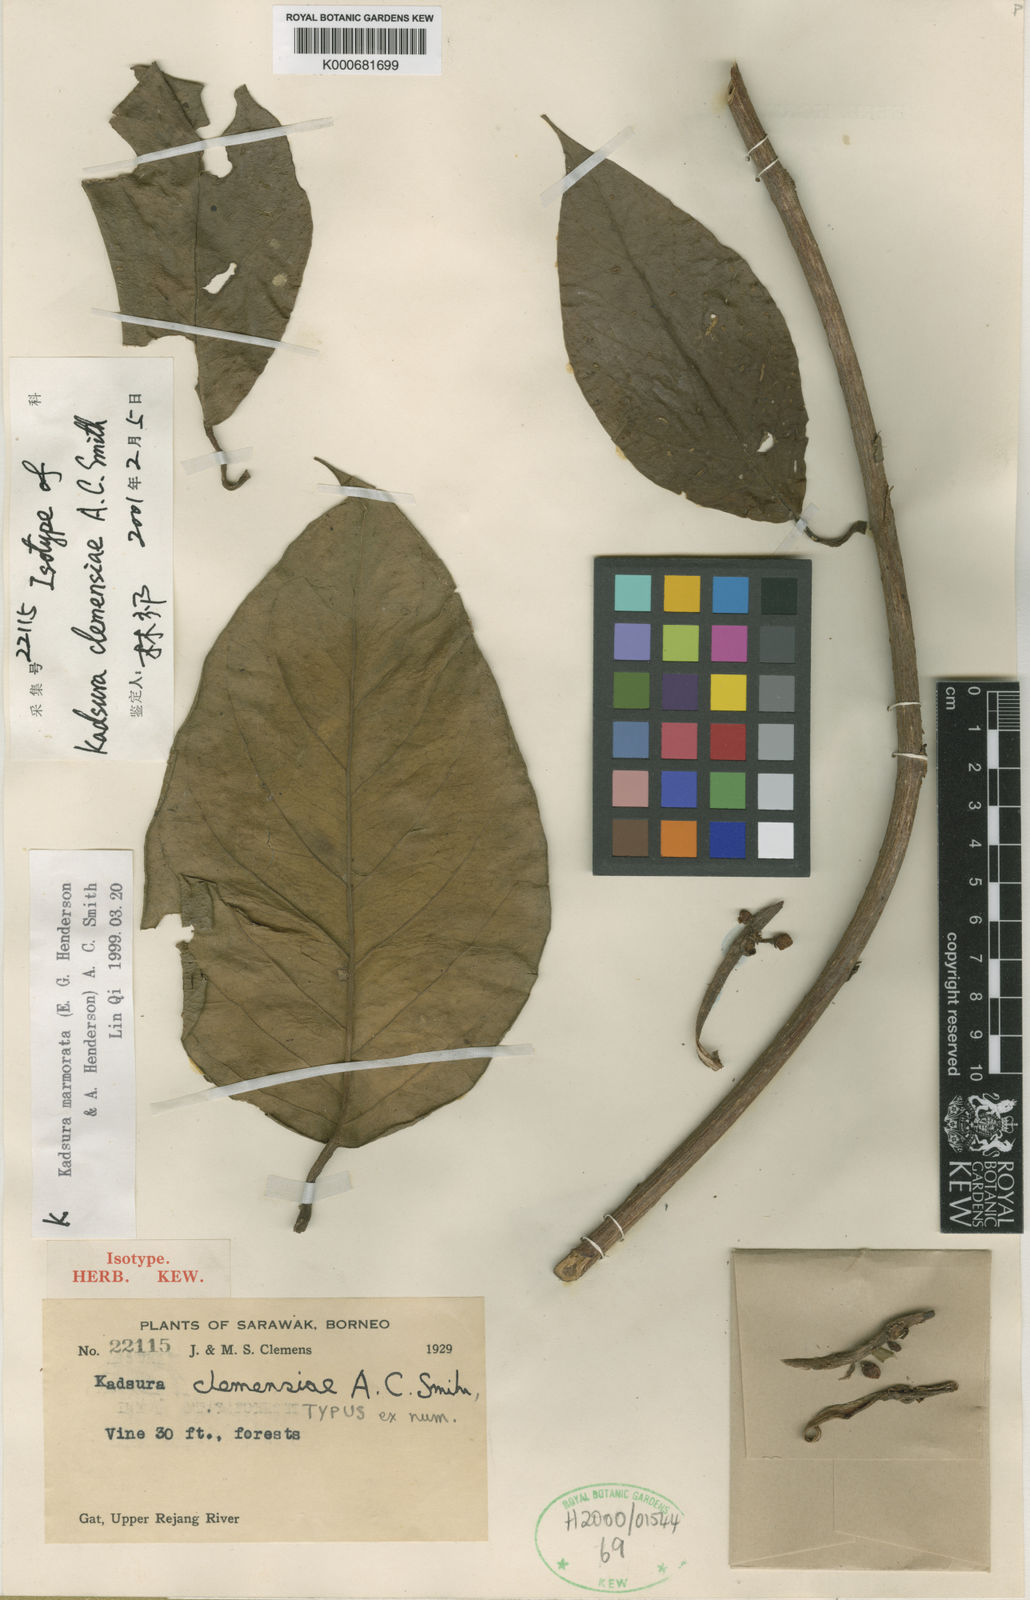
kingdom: Plantae
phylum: Tracheophyta
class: Magnoliopsida
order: Austrobaileyales
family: Schisandraceae
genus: Kadsura
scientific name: Kadsura
